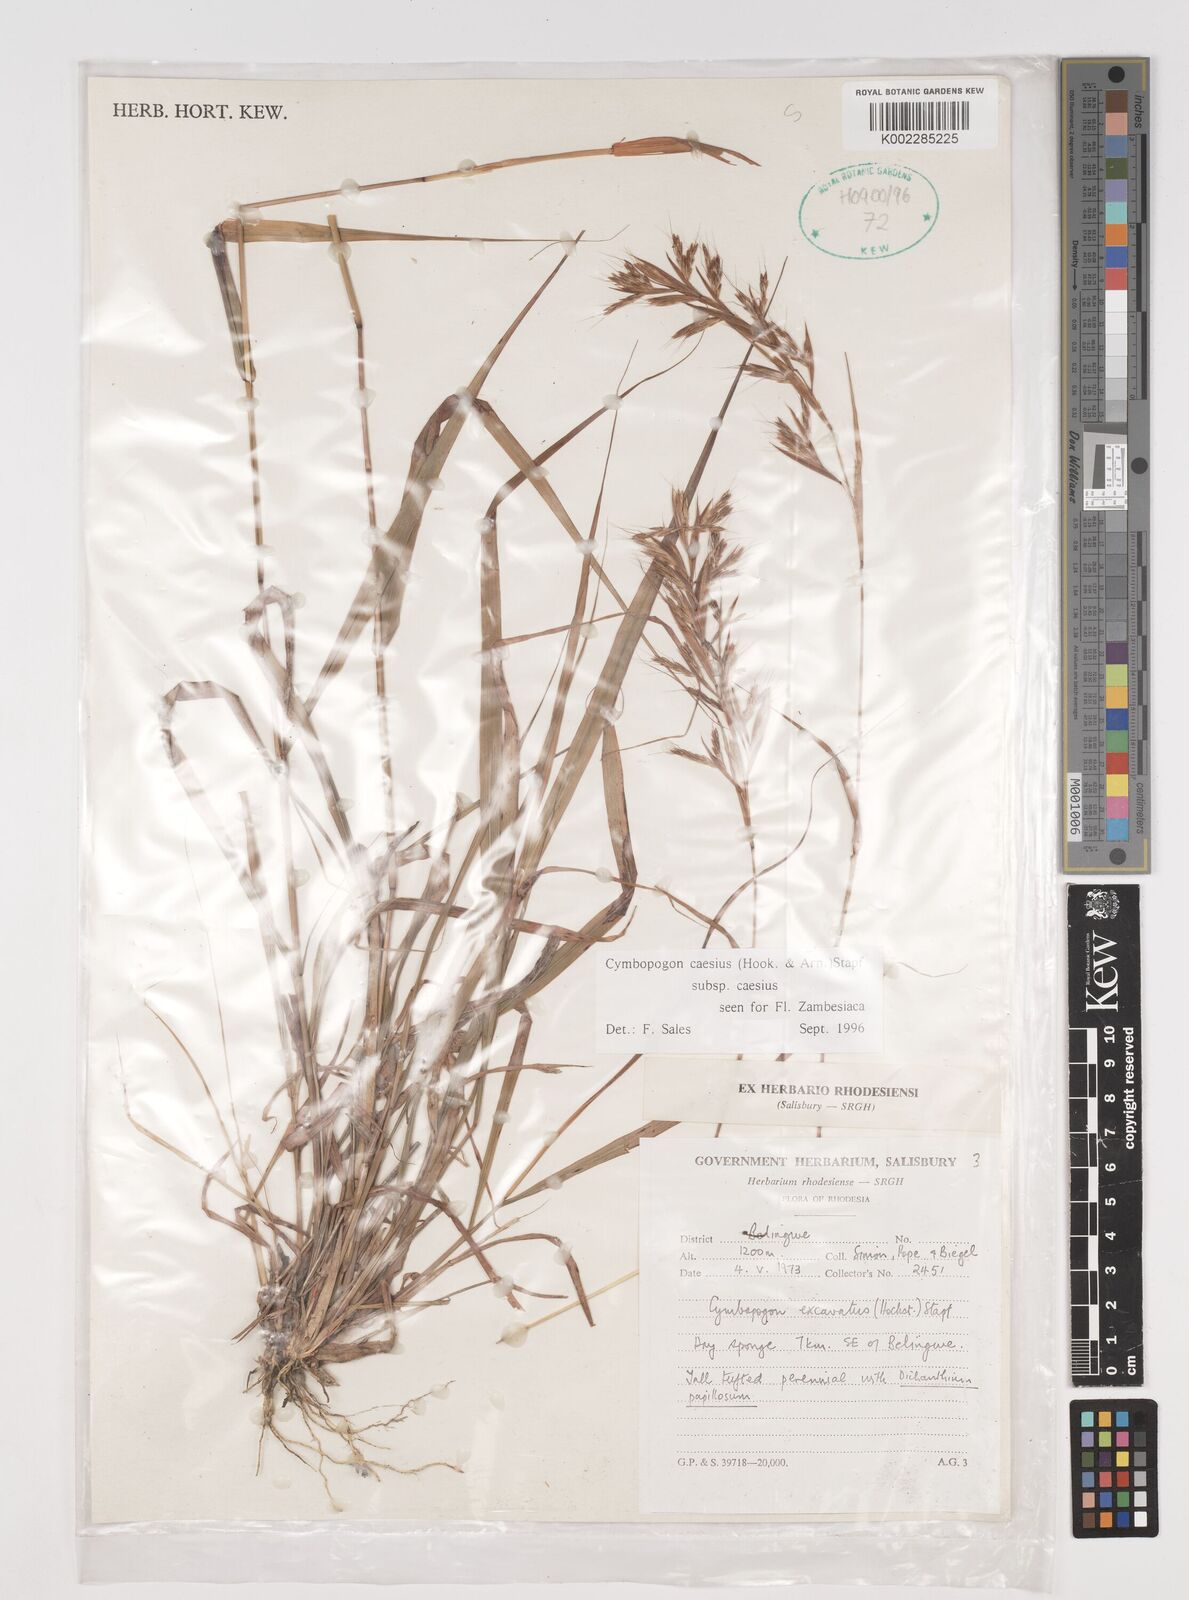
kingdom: Plantae
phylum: Tracheophyta
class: Liliopsida
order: Poales
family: Poaceae
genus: Cymbopogon
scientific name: Cymbopogon caesius
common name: Kachi grass
